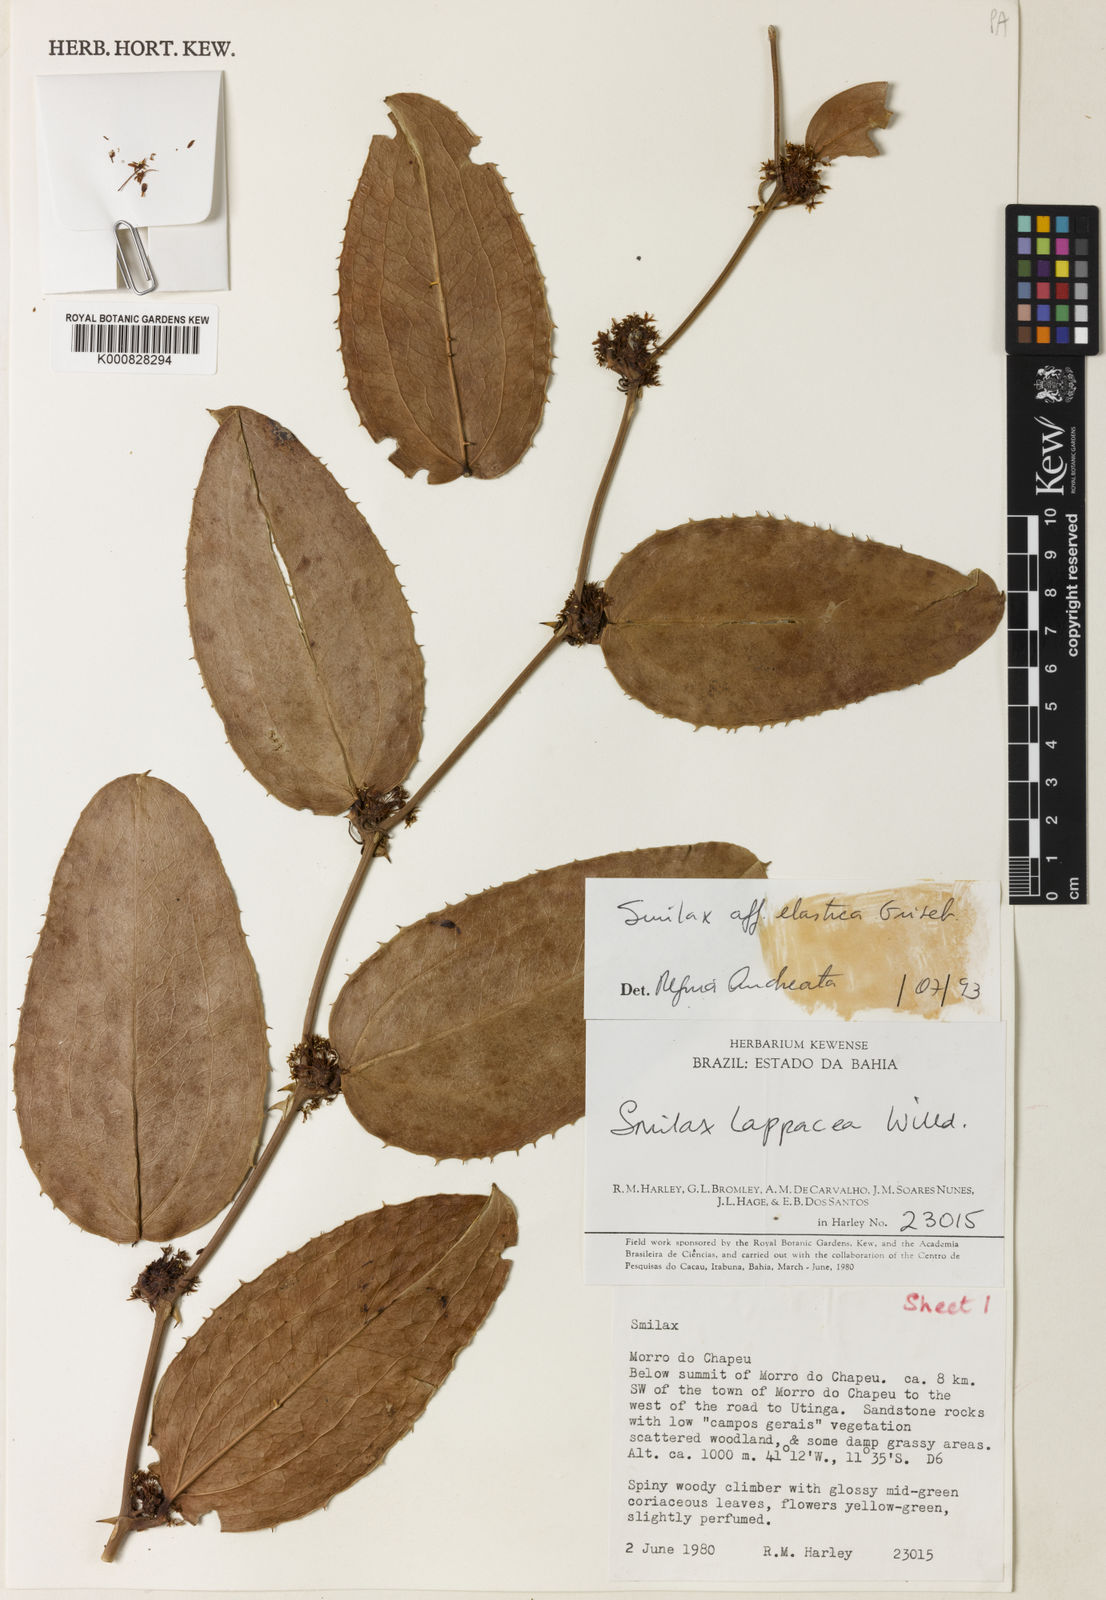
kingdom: Plantae
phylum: Tracheophyta
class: Liliopsida
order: Liliales
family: Smilacaceae
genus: Smilax
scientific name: Smilax elastica
